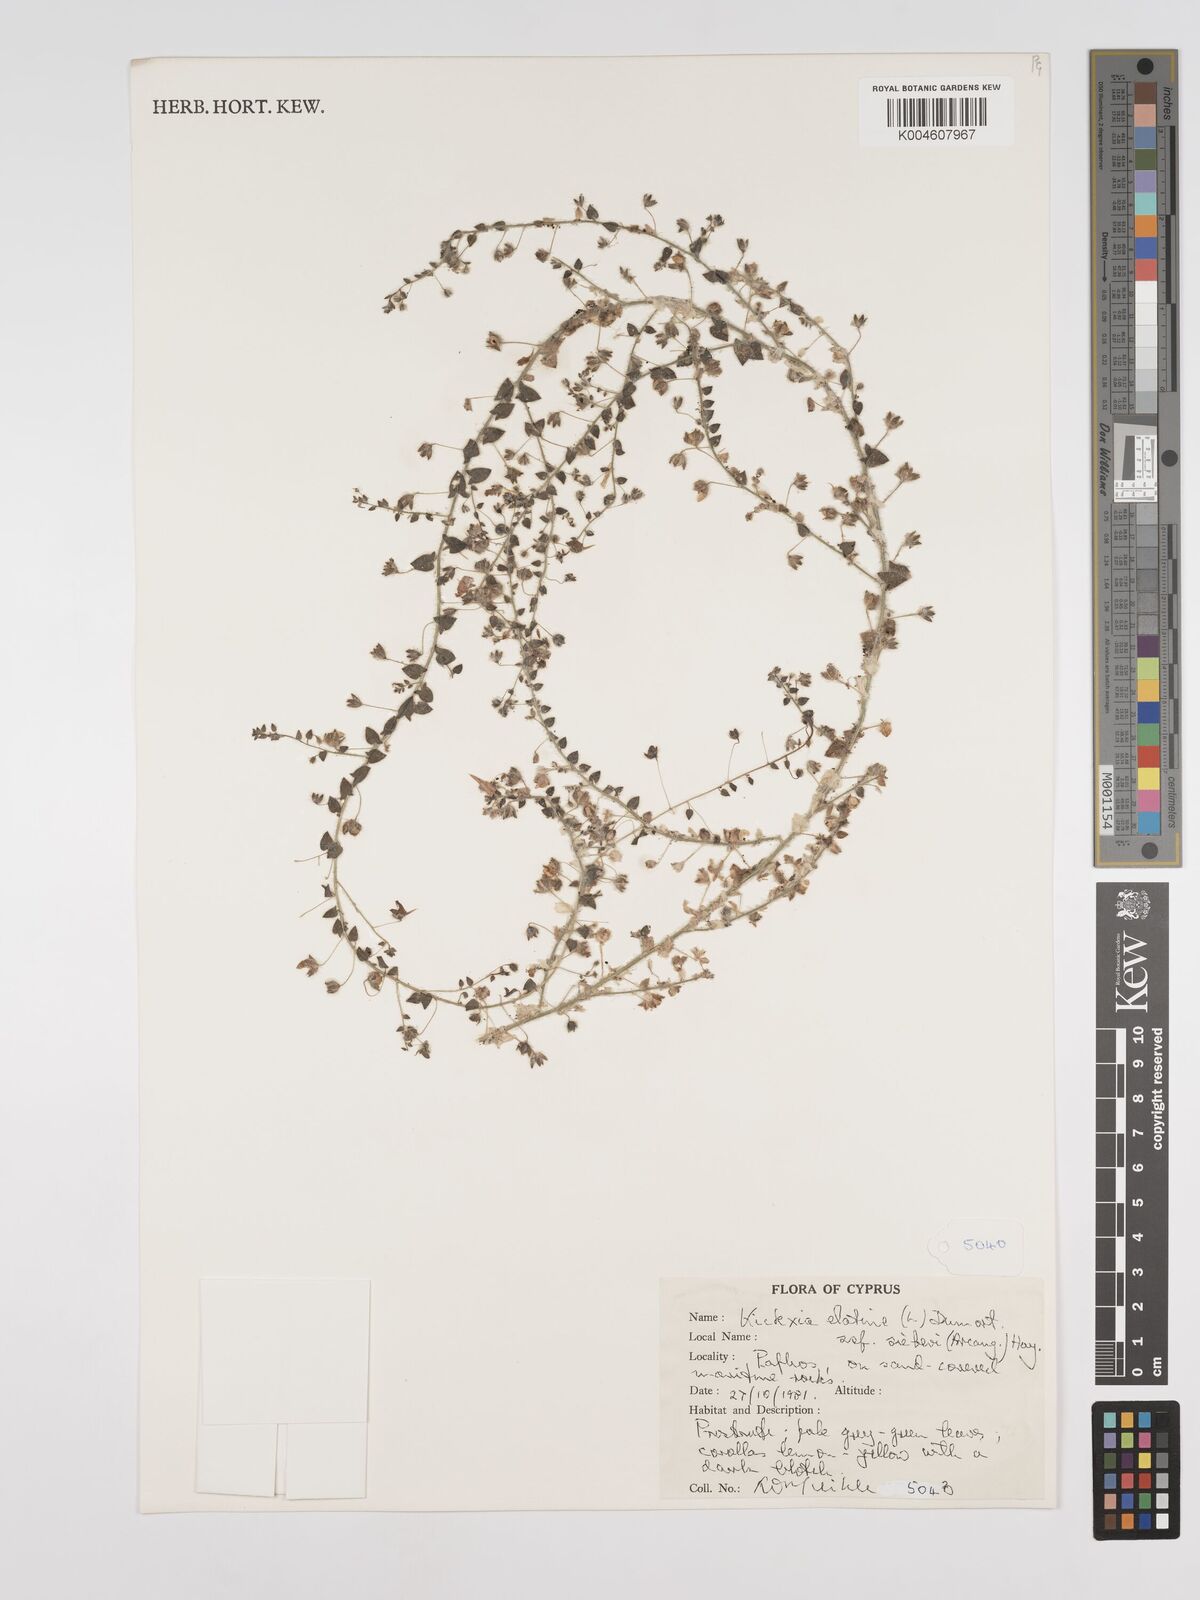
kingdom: Plantae
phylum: Tracheophyta
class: Magnoliopsida
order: Lamiales
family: Plantaginaceae
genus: Kickxia
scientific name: Kickxia elatine
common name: Sharp-leaved fluellen
